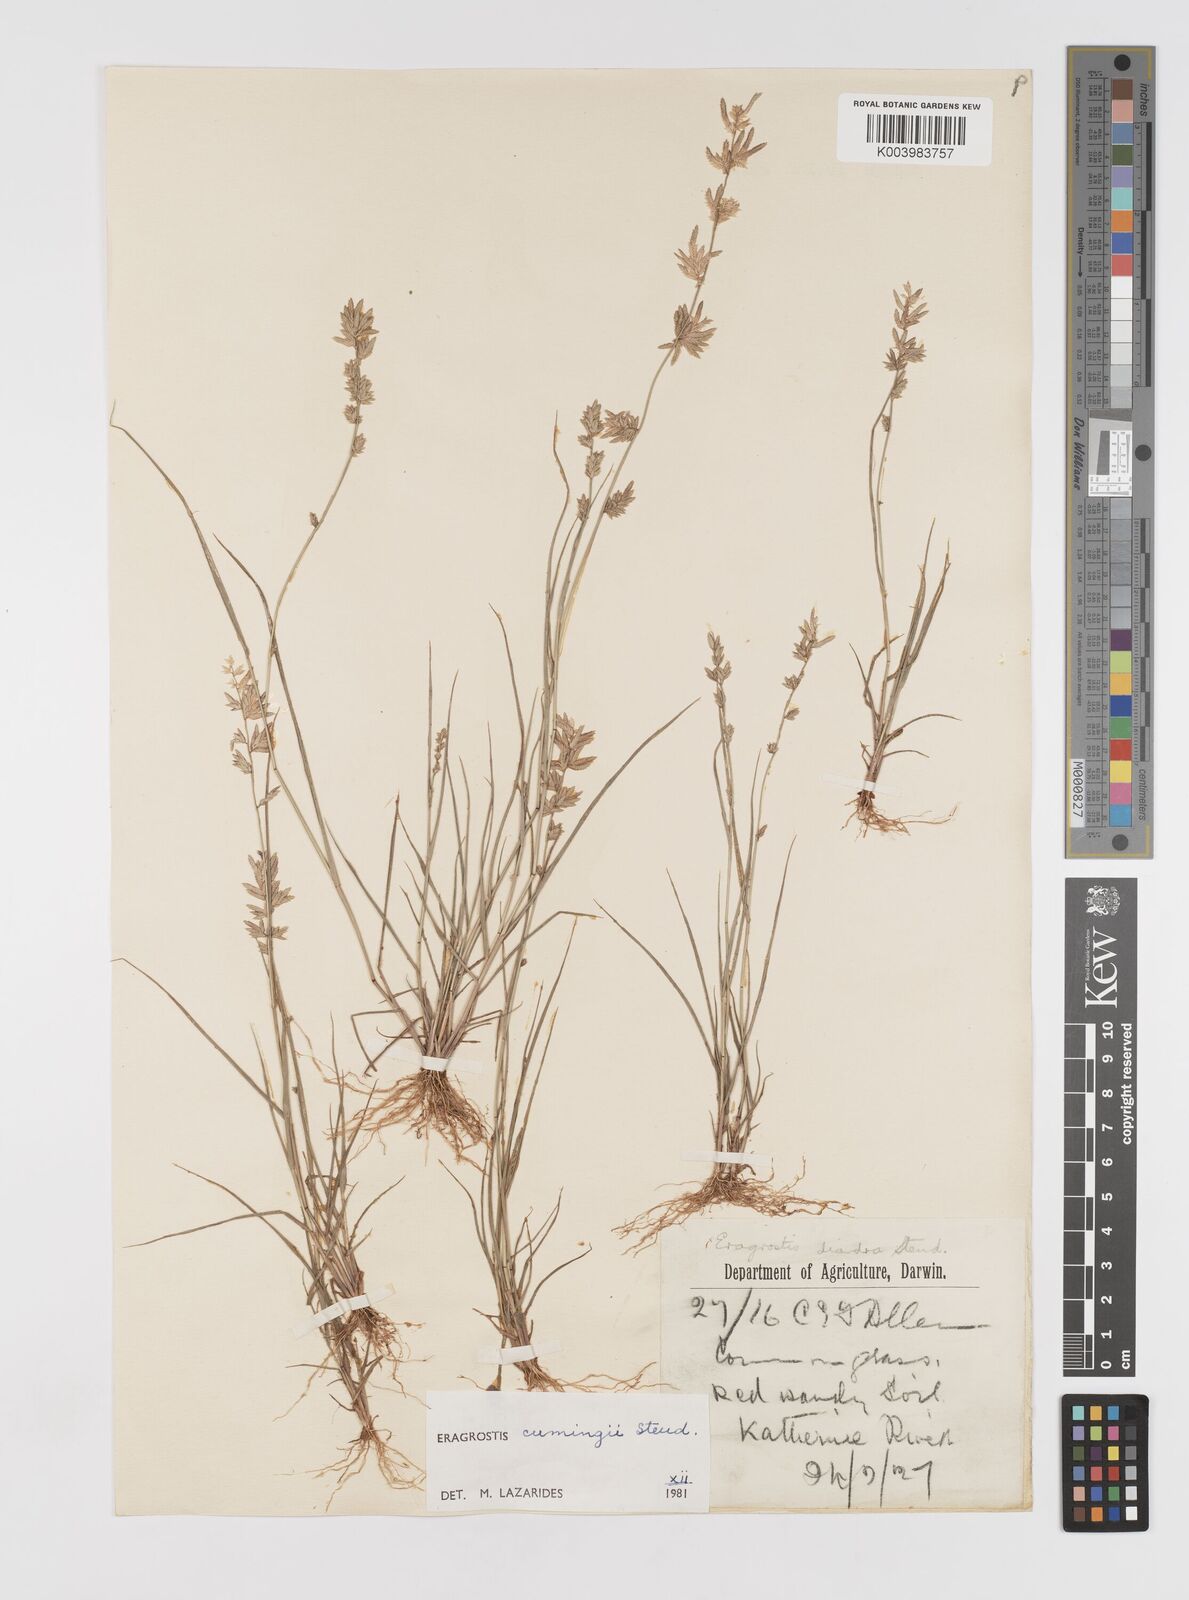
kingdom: Plantae
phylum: Tracheophyta
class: Liliopsida
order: Poales
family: Poaceae
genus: Eragrostis
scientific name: Eragrostis cumingii
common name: Cuming's lovegrass
